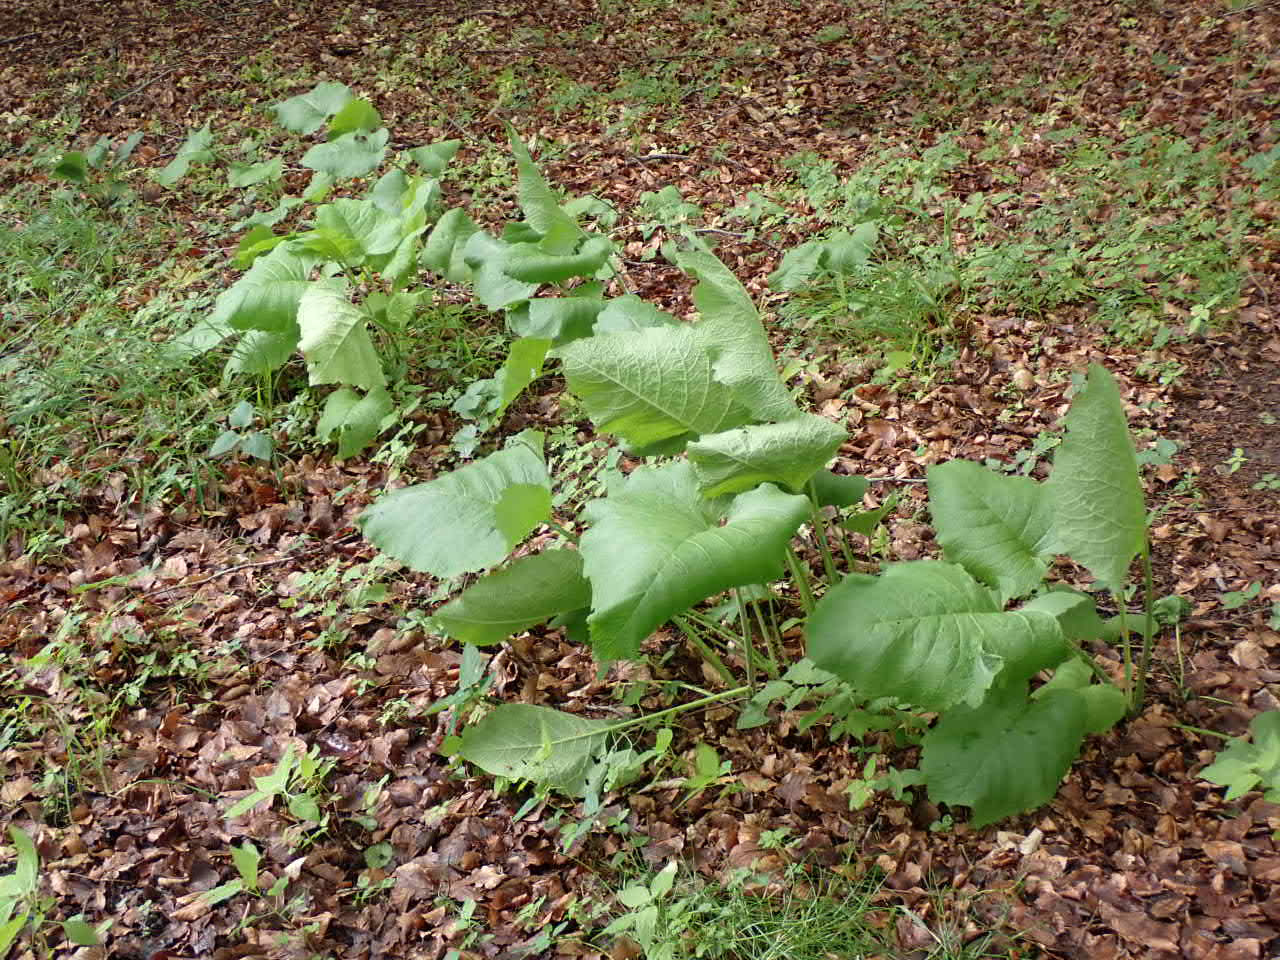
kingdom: Plantae
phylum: Tracheophyta
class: Magnoliopsida
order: Asterales
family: Asteraceae
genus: Telekia
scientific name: Telekia speciosa
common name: Tusindstråle
